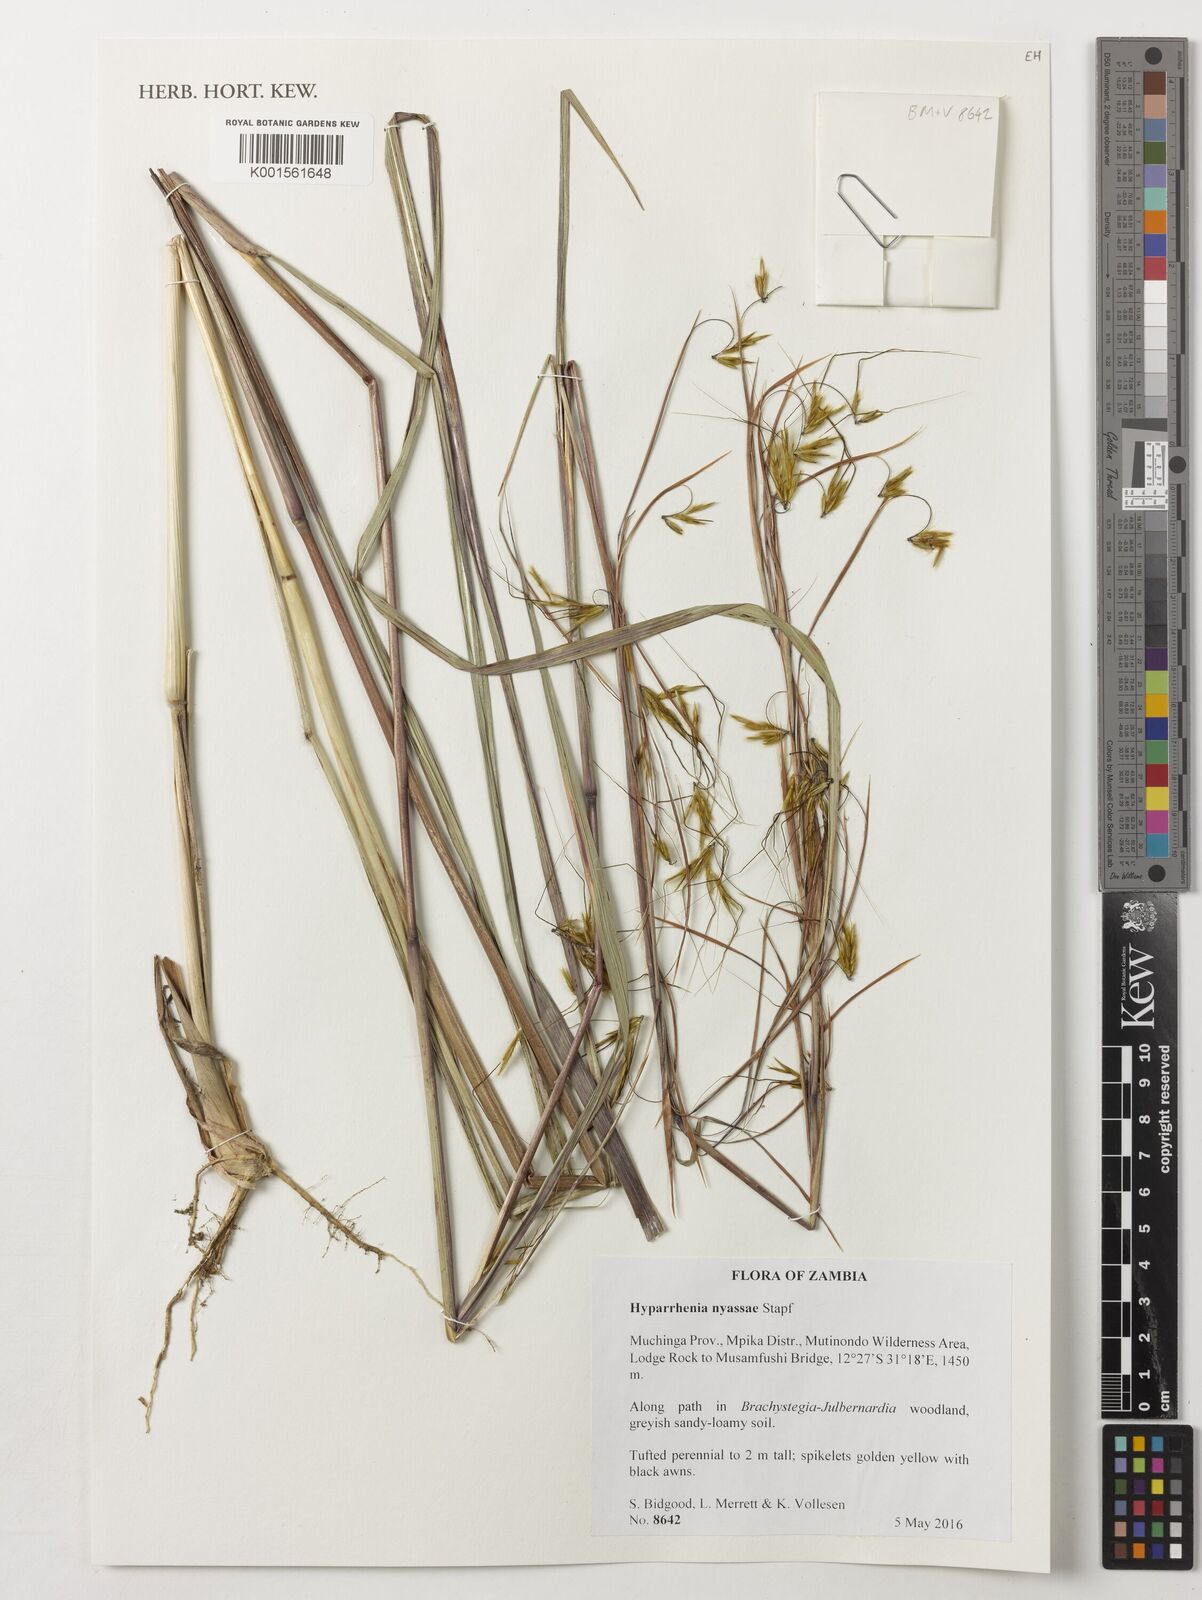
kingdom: Plantae
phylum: Tracheophyta
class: Liliopsida
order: Poales
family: Poaceae
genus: Hyparrhenia
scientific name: Hyparrhenia nyassae
